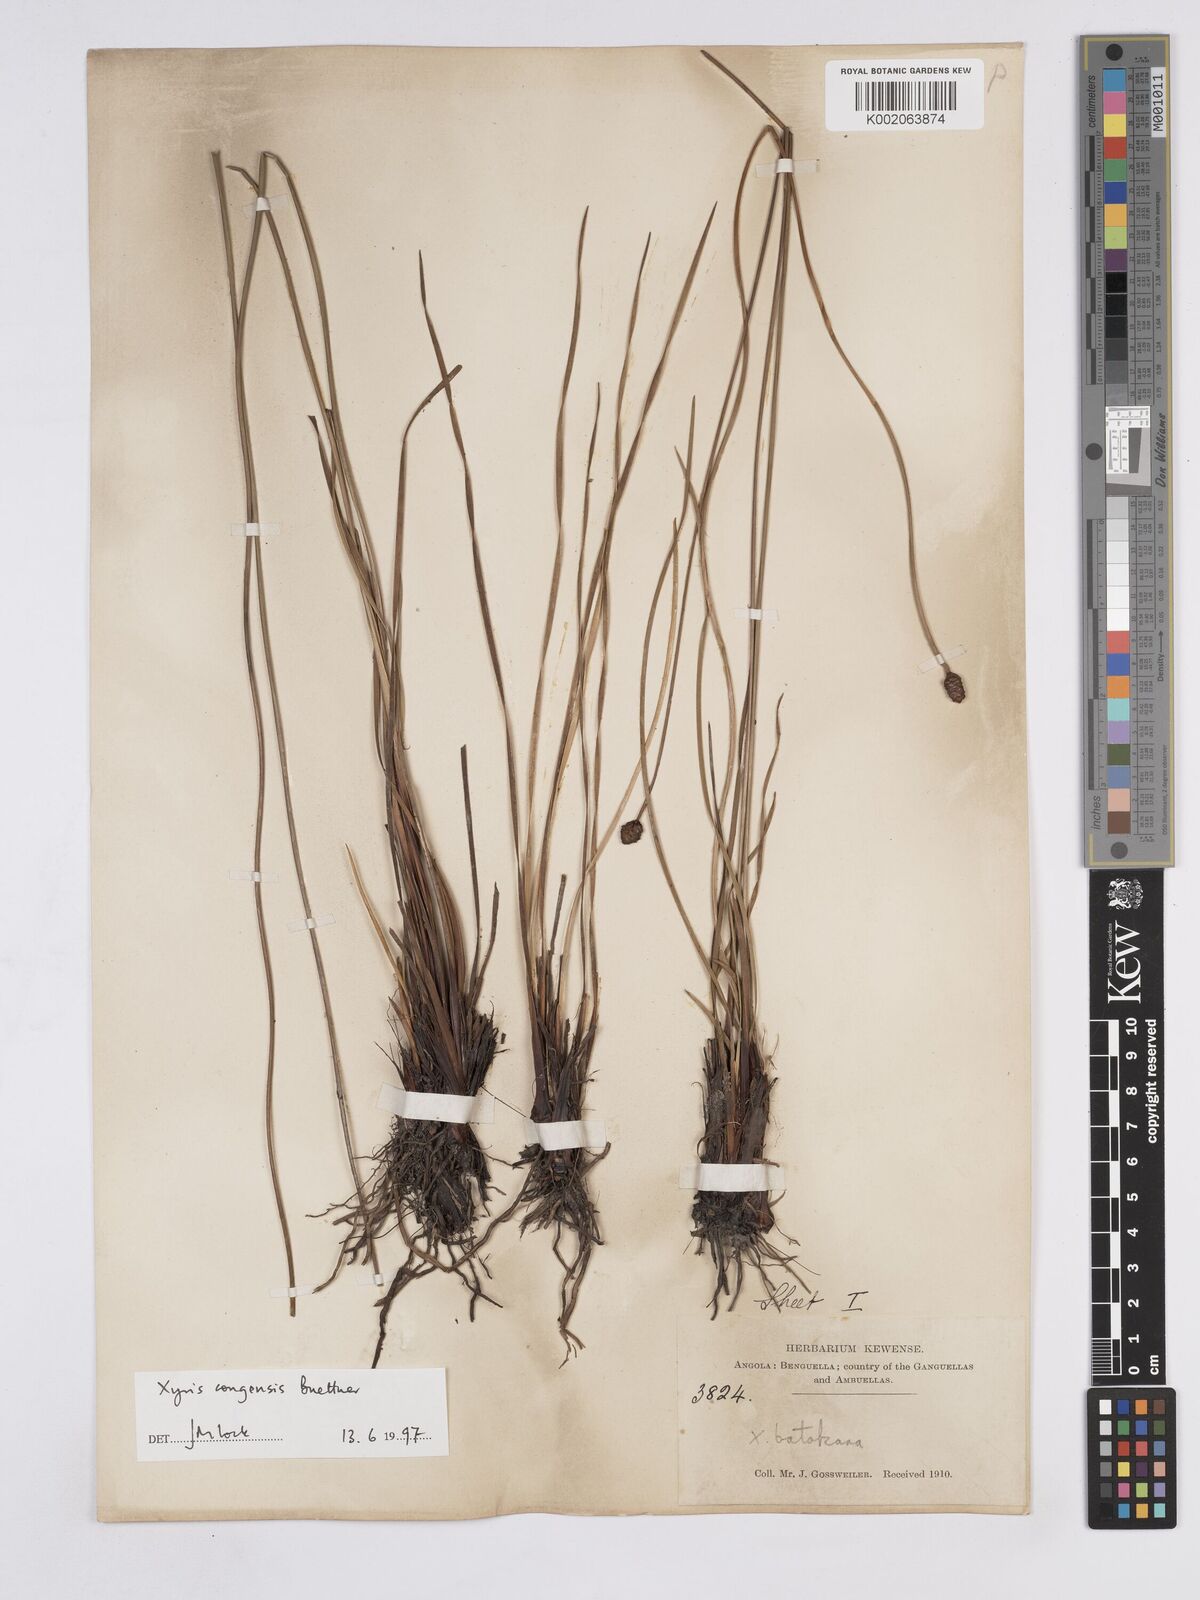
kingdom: Plantae
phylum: Tracheophyta
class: Liliopsida
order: Poales
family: Xyridaceae
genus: Xyris
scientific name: Xyris congensis
